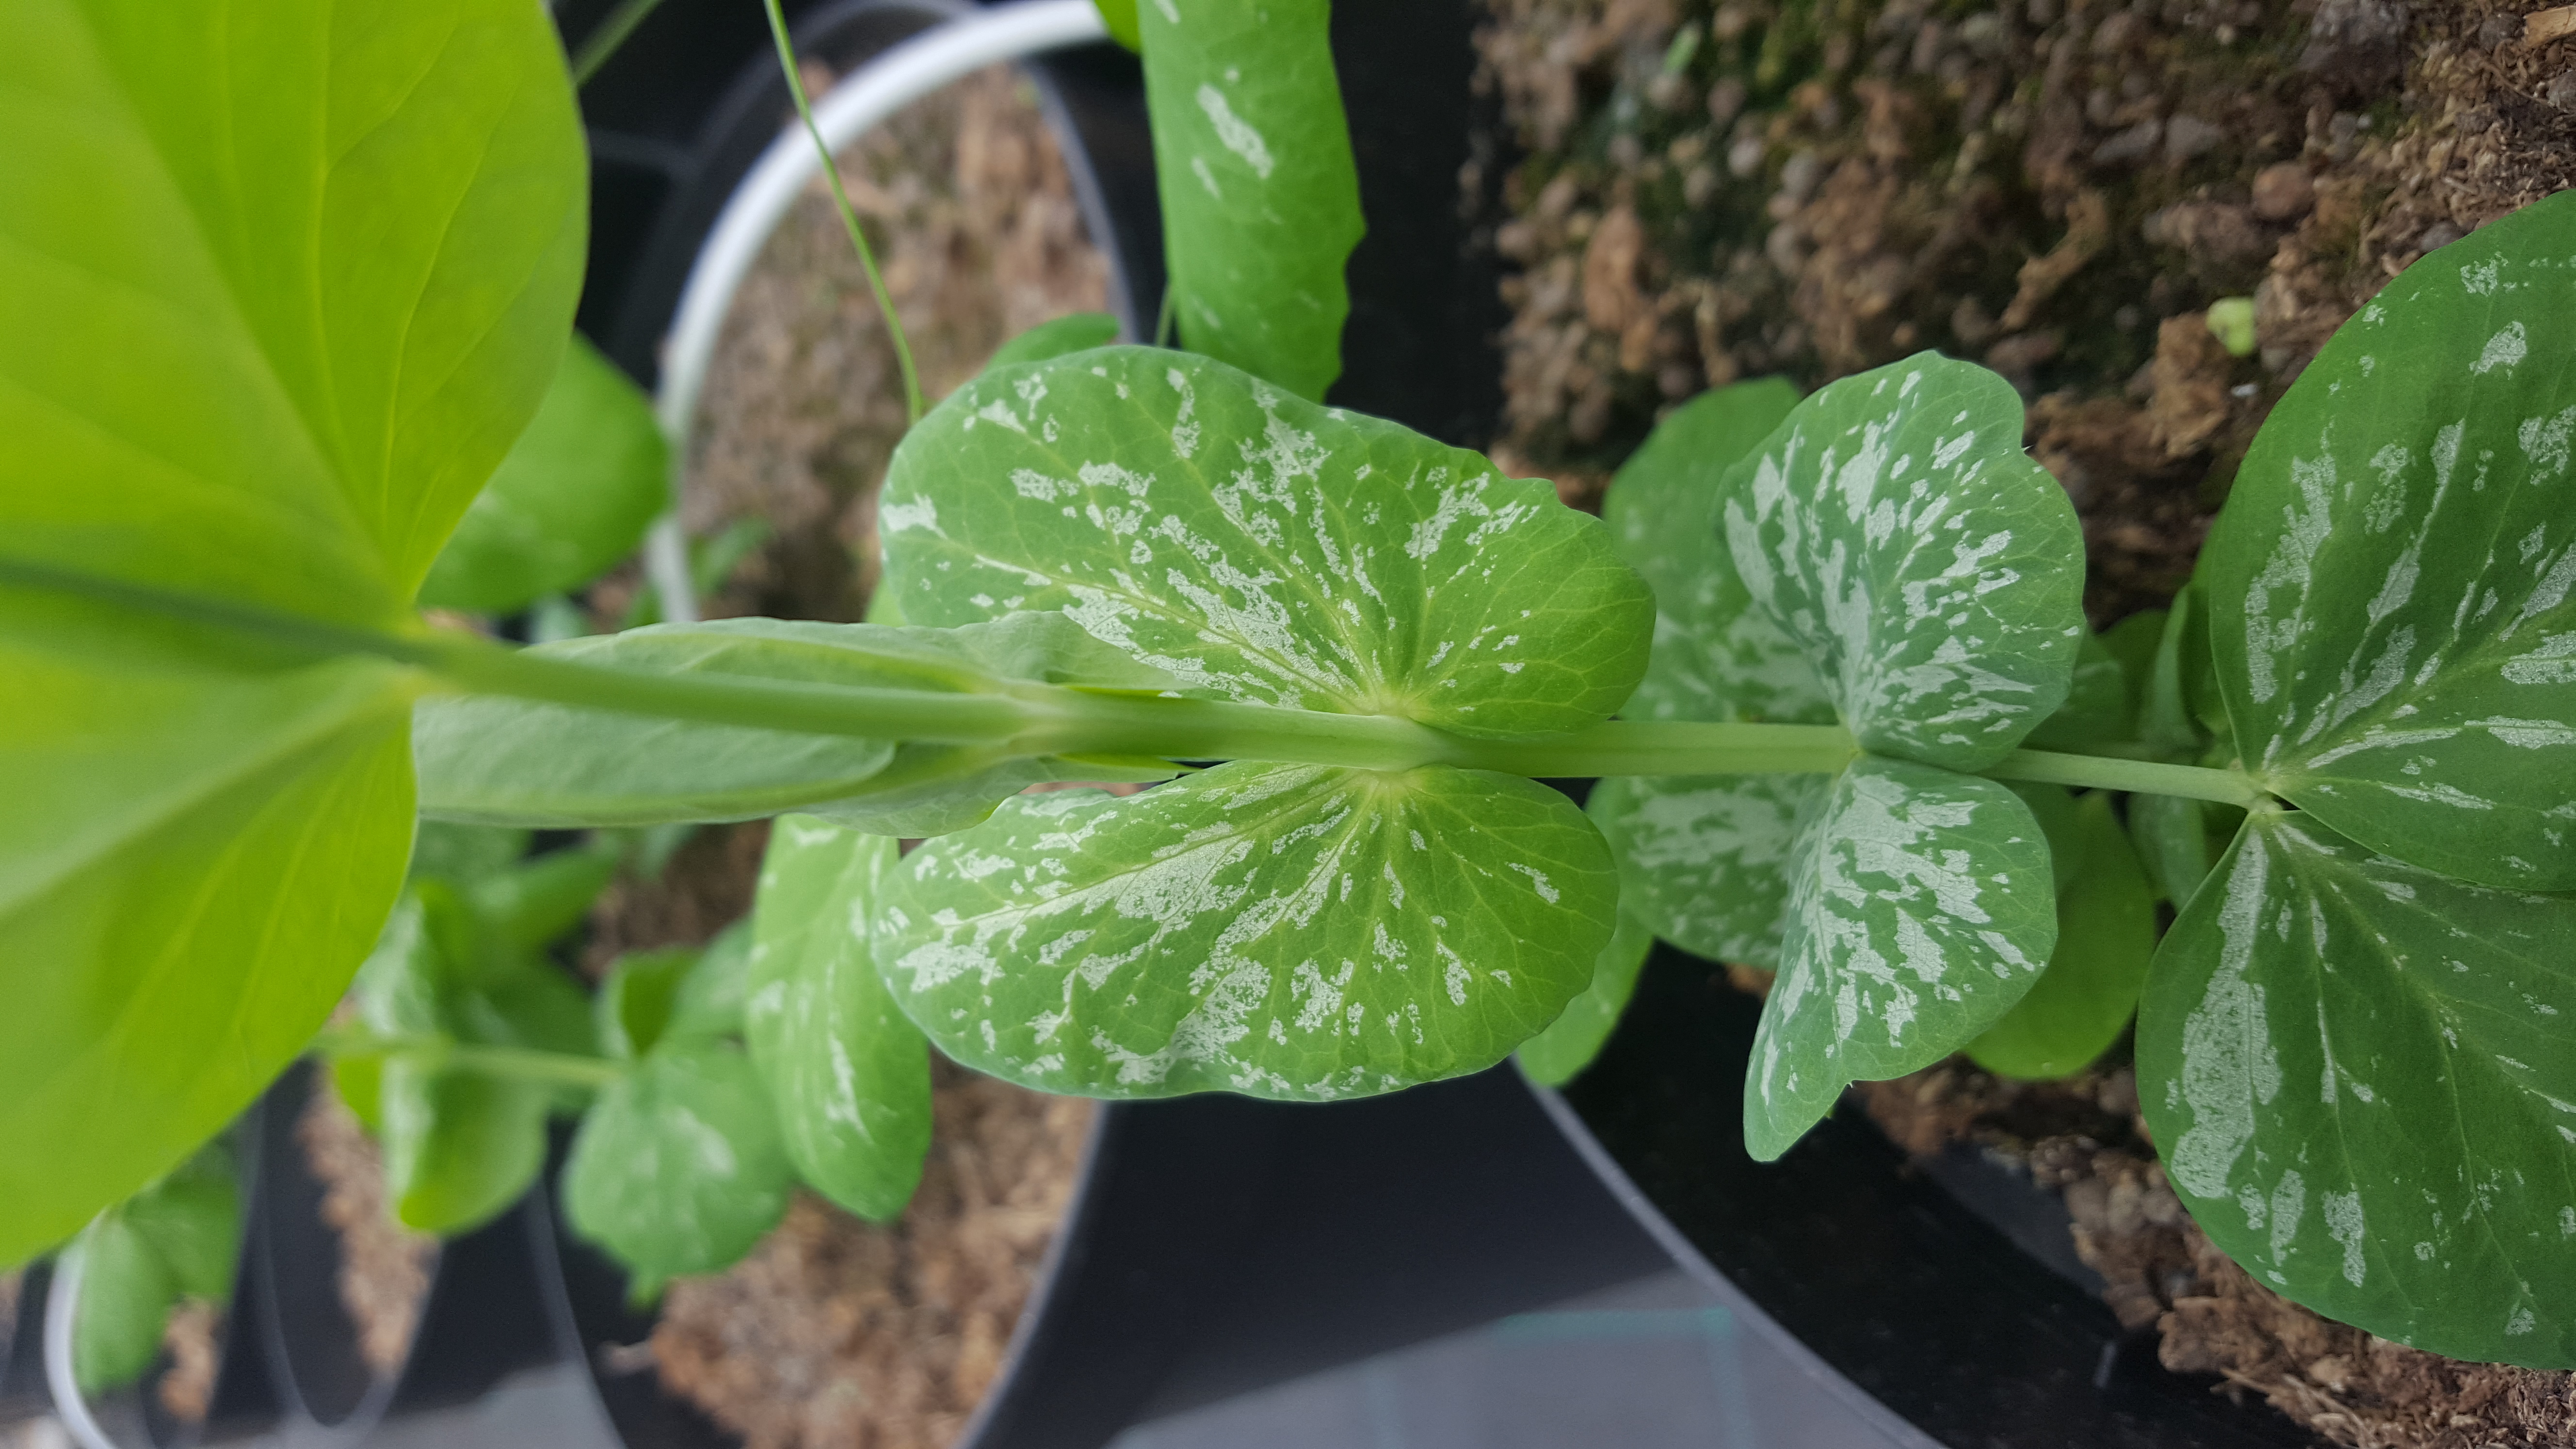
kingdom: Plantae
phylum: Tracheophyta
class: Magnoliopsida
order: Fabales
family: Fabaceae
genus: Lathyrus
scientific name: Lathyrus oleraceus
